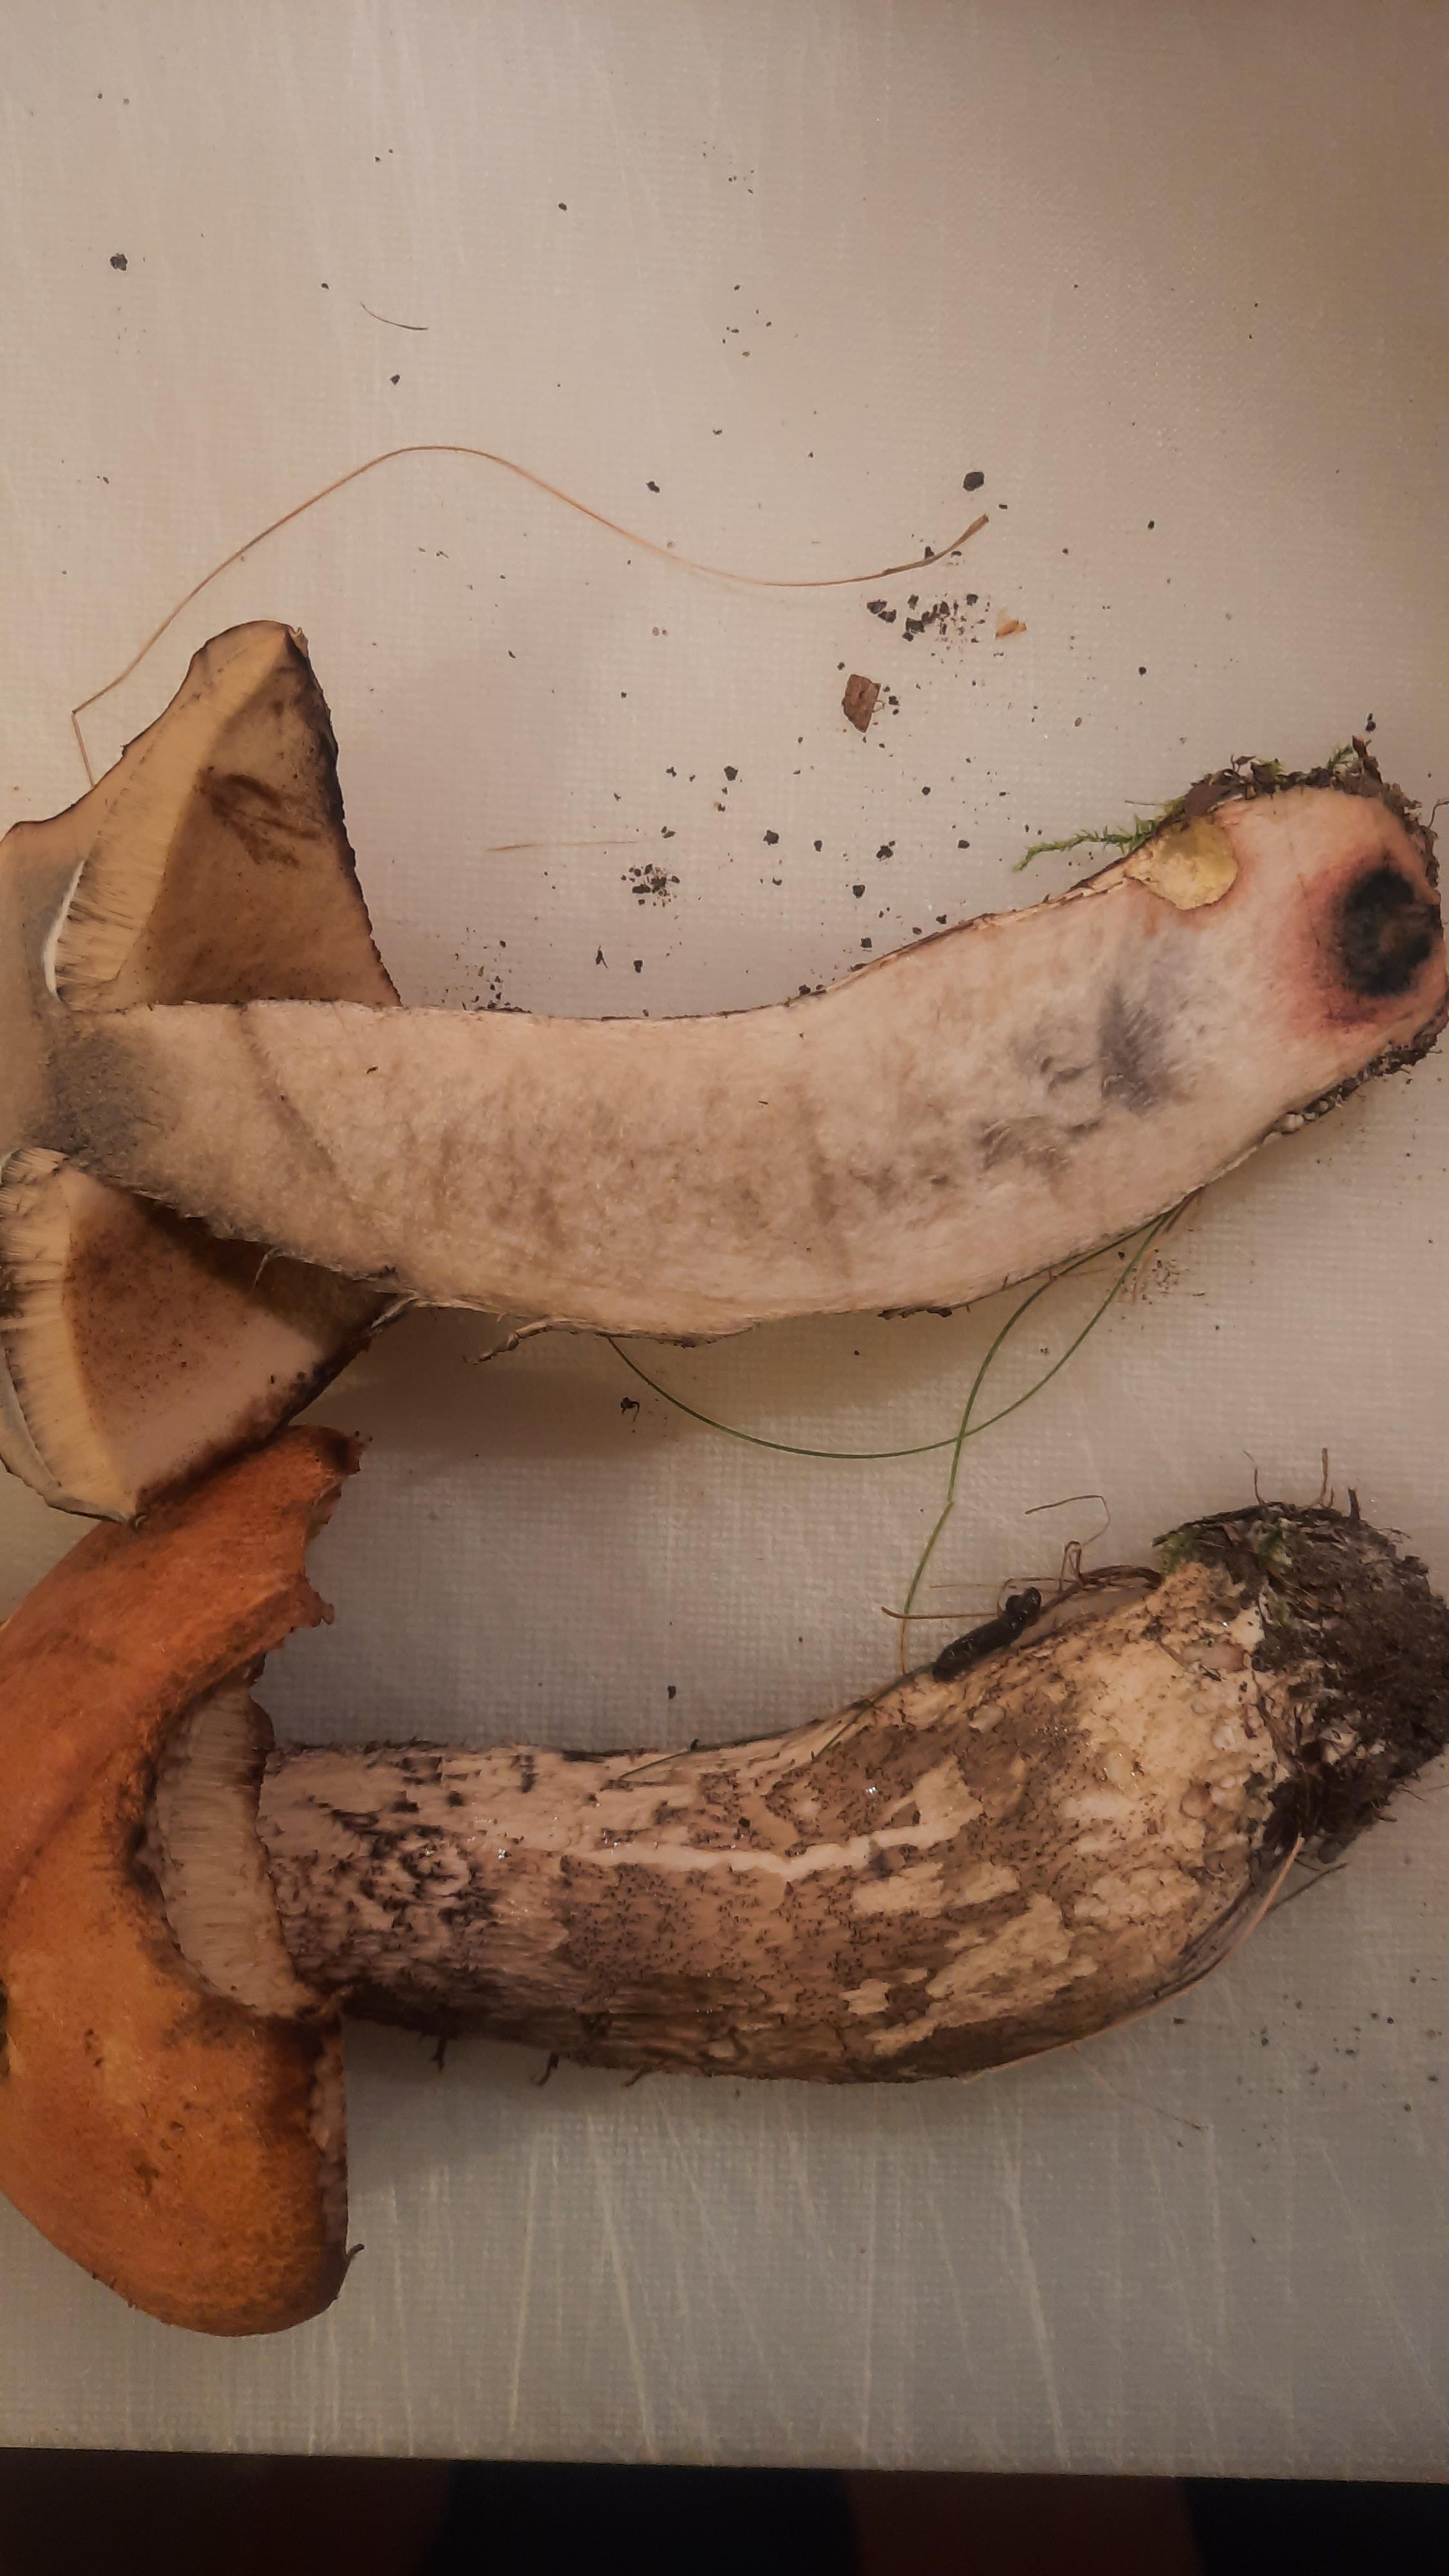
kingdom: Fungi
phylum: Basidiomycota
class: Agaricomycetes
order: Boletales
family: Boletaceae
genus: Leccinum
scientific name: Leccinum albostipitatum
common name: aspe-skælrørhat
